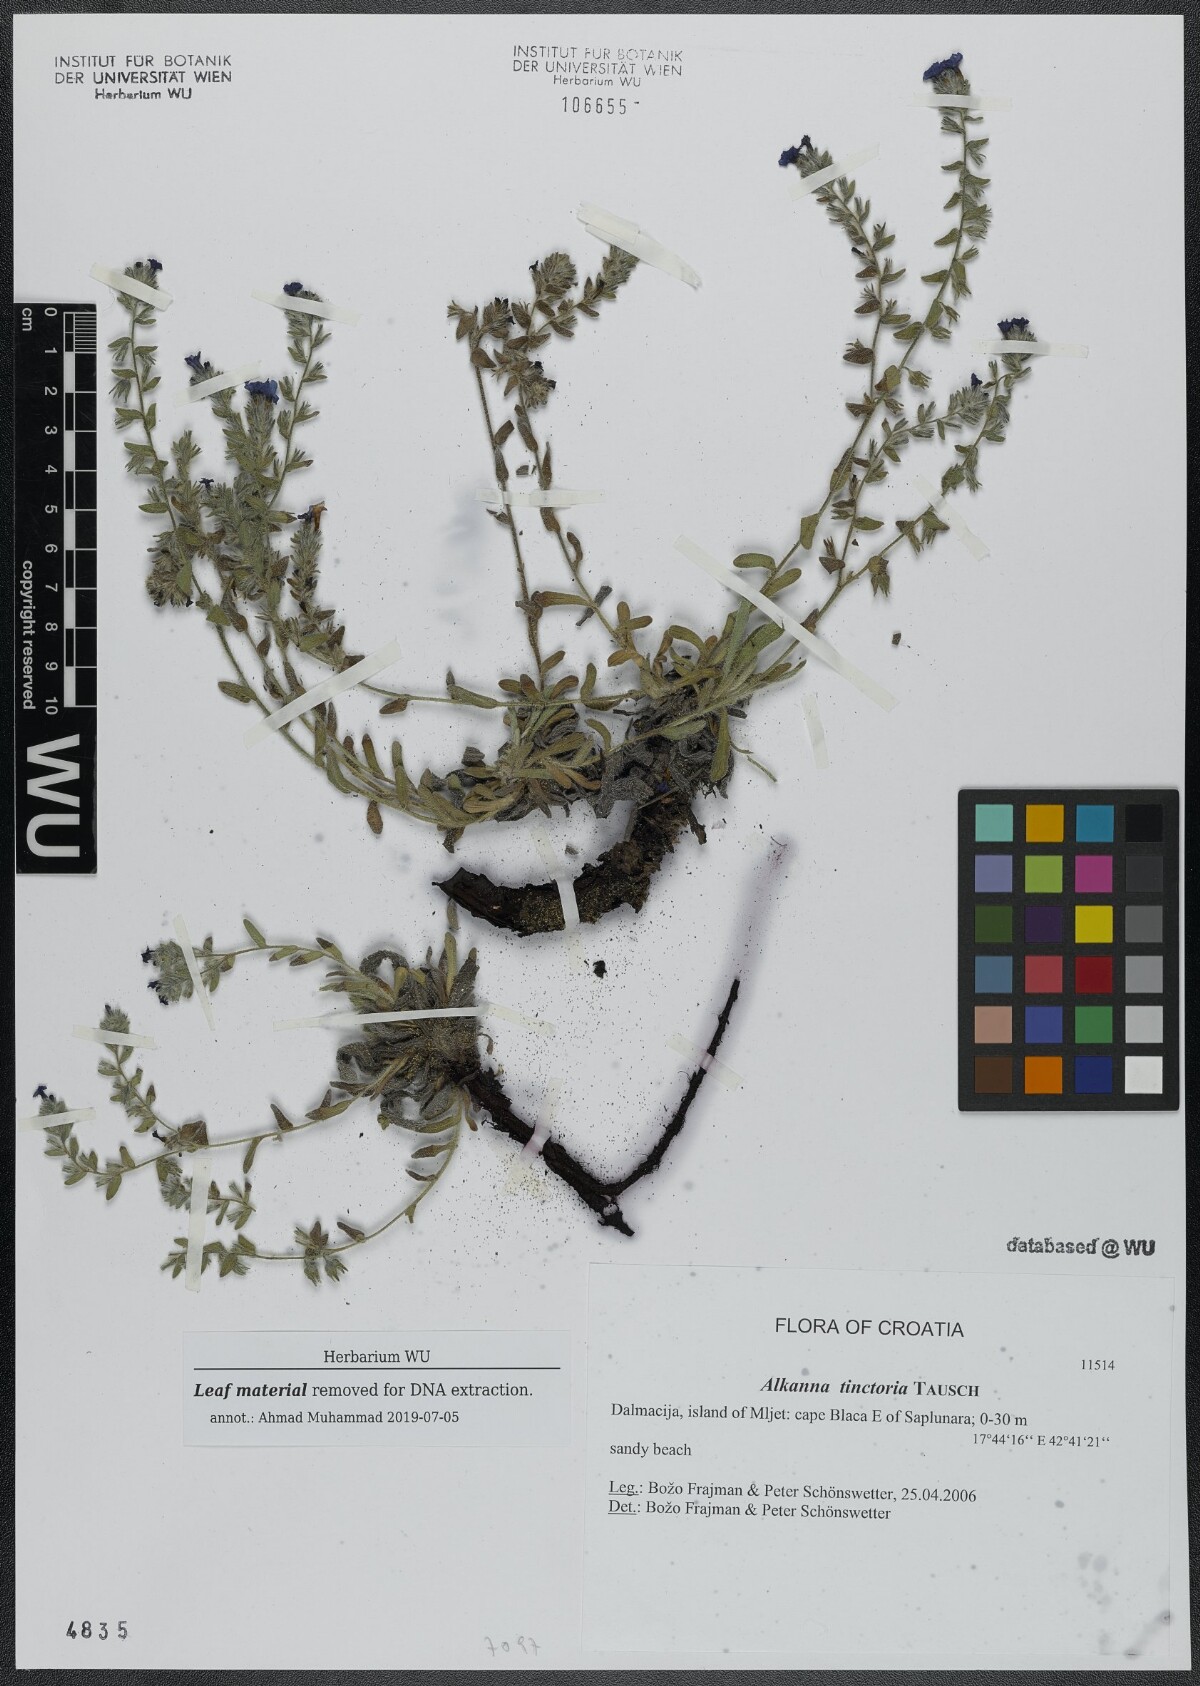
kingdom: Plantae
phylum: Tracheophyta
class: Magnoliopsida
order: Boraginales
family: Boraginaceae
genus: Alkanna
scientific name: Alkanna tinctoria
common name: Dyer's-alkanet
